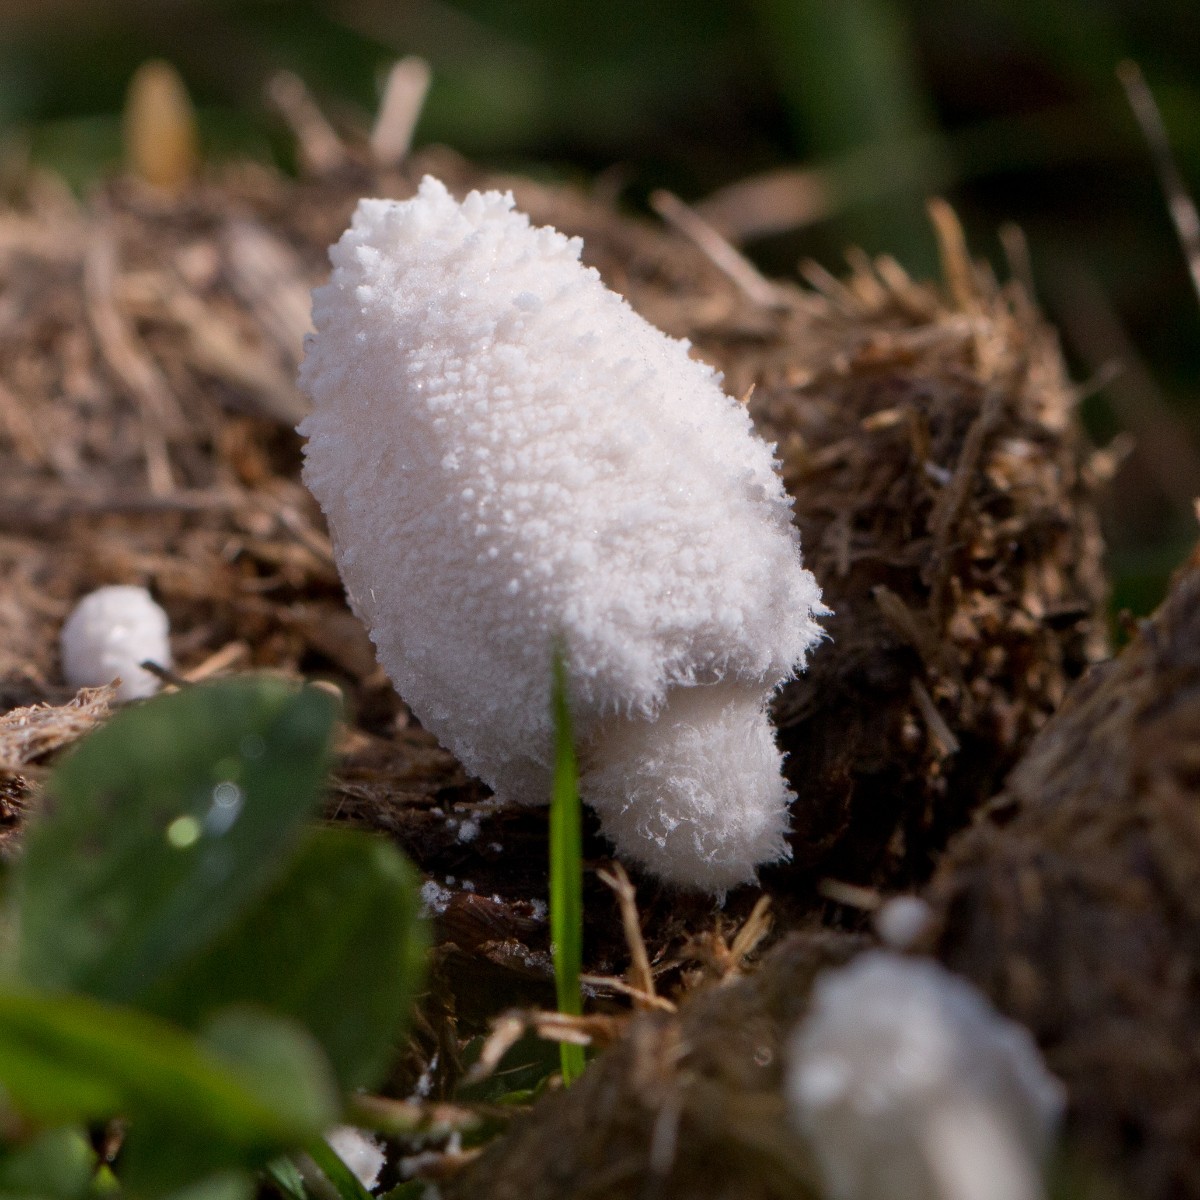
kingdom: Fungi
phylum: Basidiomycota
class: Agaricomycetes
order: Agaricales
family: Psathyrellaceae
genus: Coprinopsis
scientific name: Coprinopsis nivea
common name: snehvid blækhat
